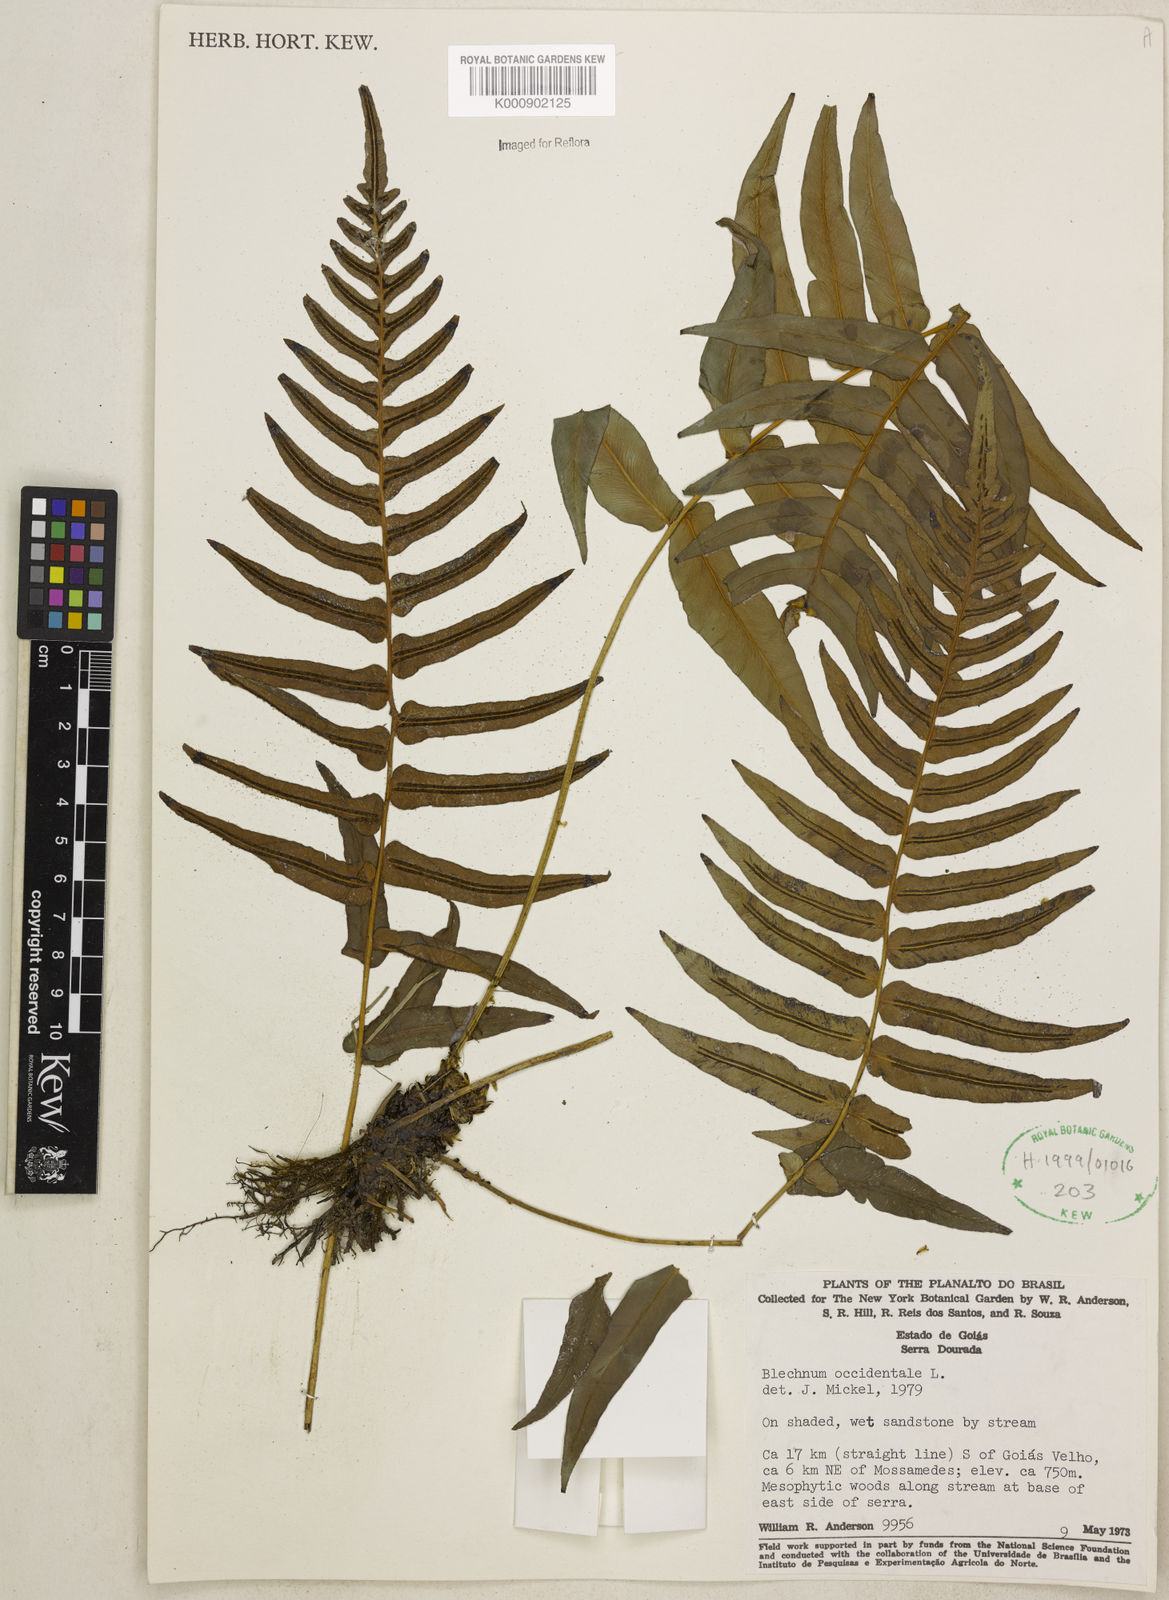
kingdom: Plantae
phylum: Tracheophyta
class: Polypodiopsida
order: Polypodiales
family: Blechnaceae
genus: Blechnum
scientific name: Blechnum occidentale
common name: Hammock fern
